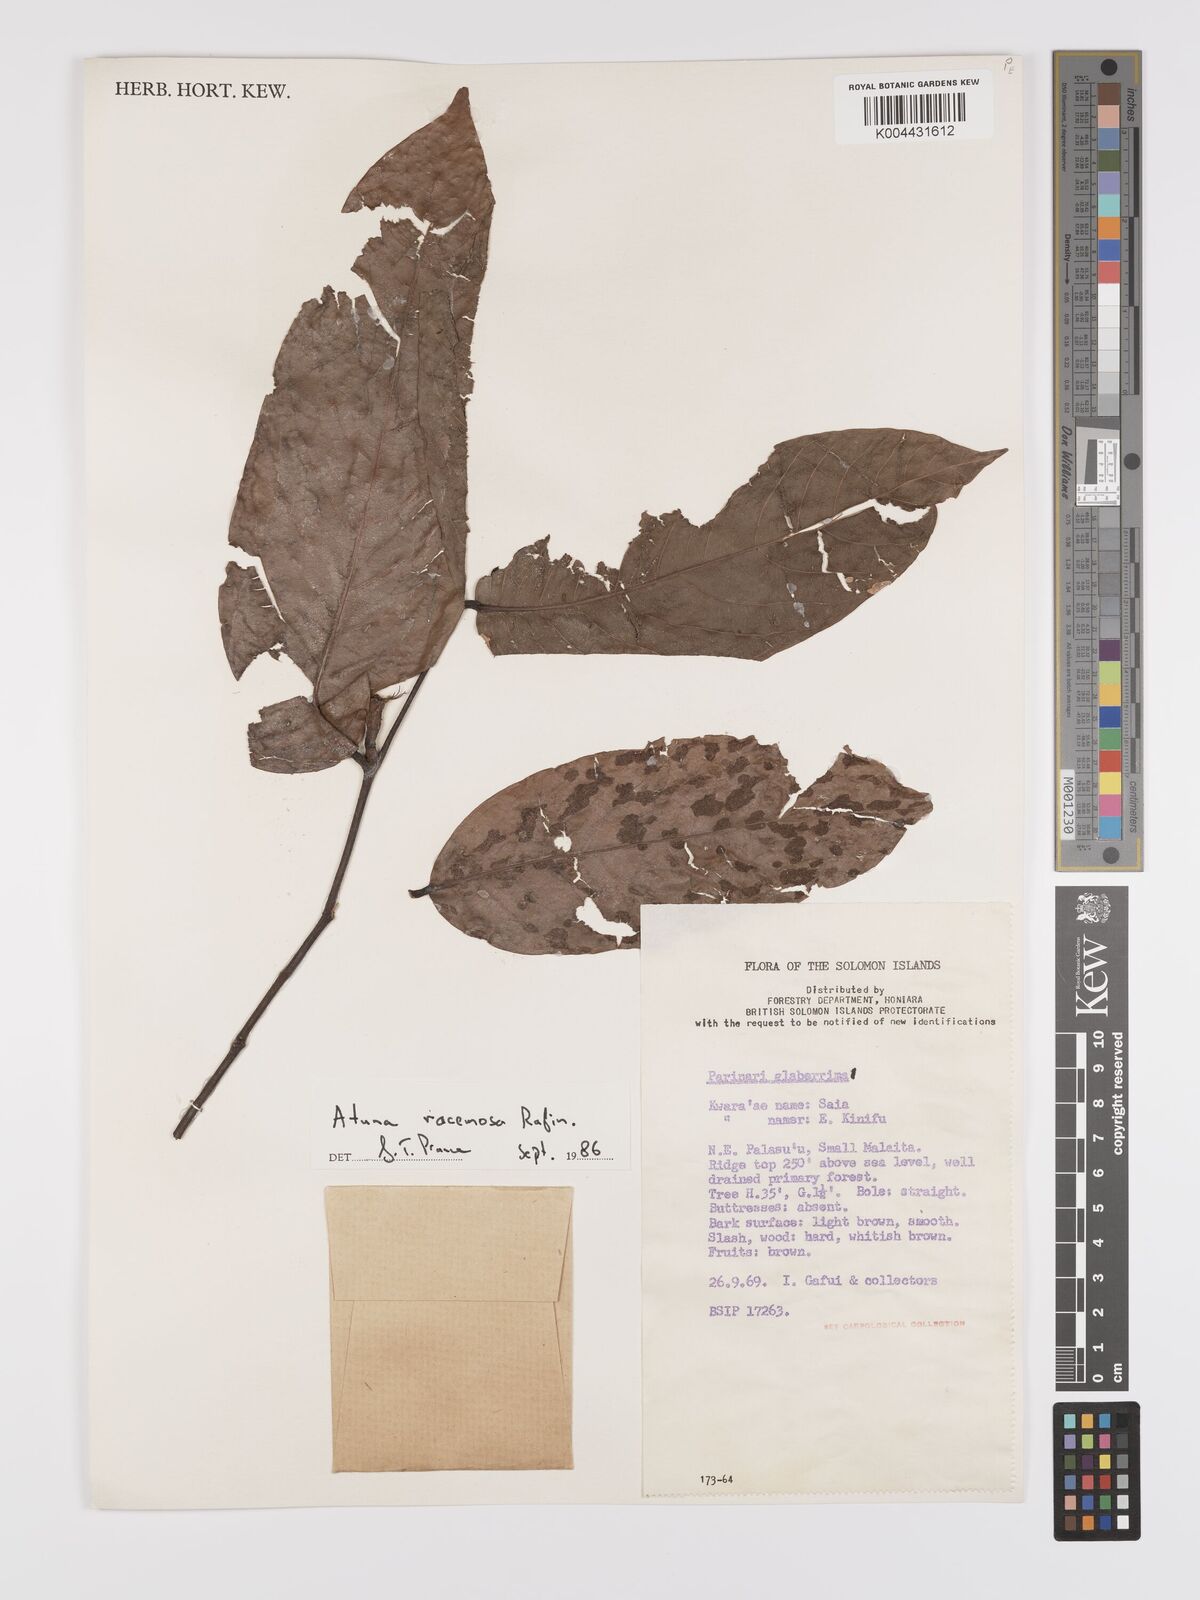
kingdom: Plantae
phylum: Tracheophyta
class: Magnoliopsida
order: Malpighiales
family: Chrysobalanaceae
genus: Atuna
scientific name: Atuna excelsa
